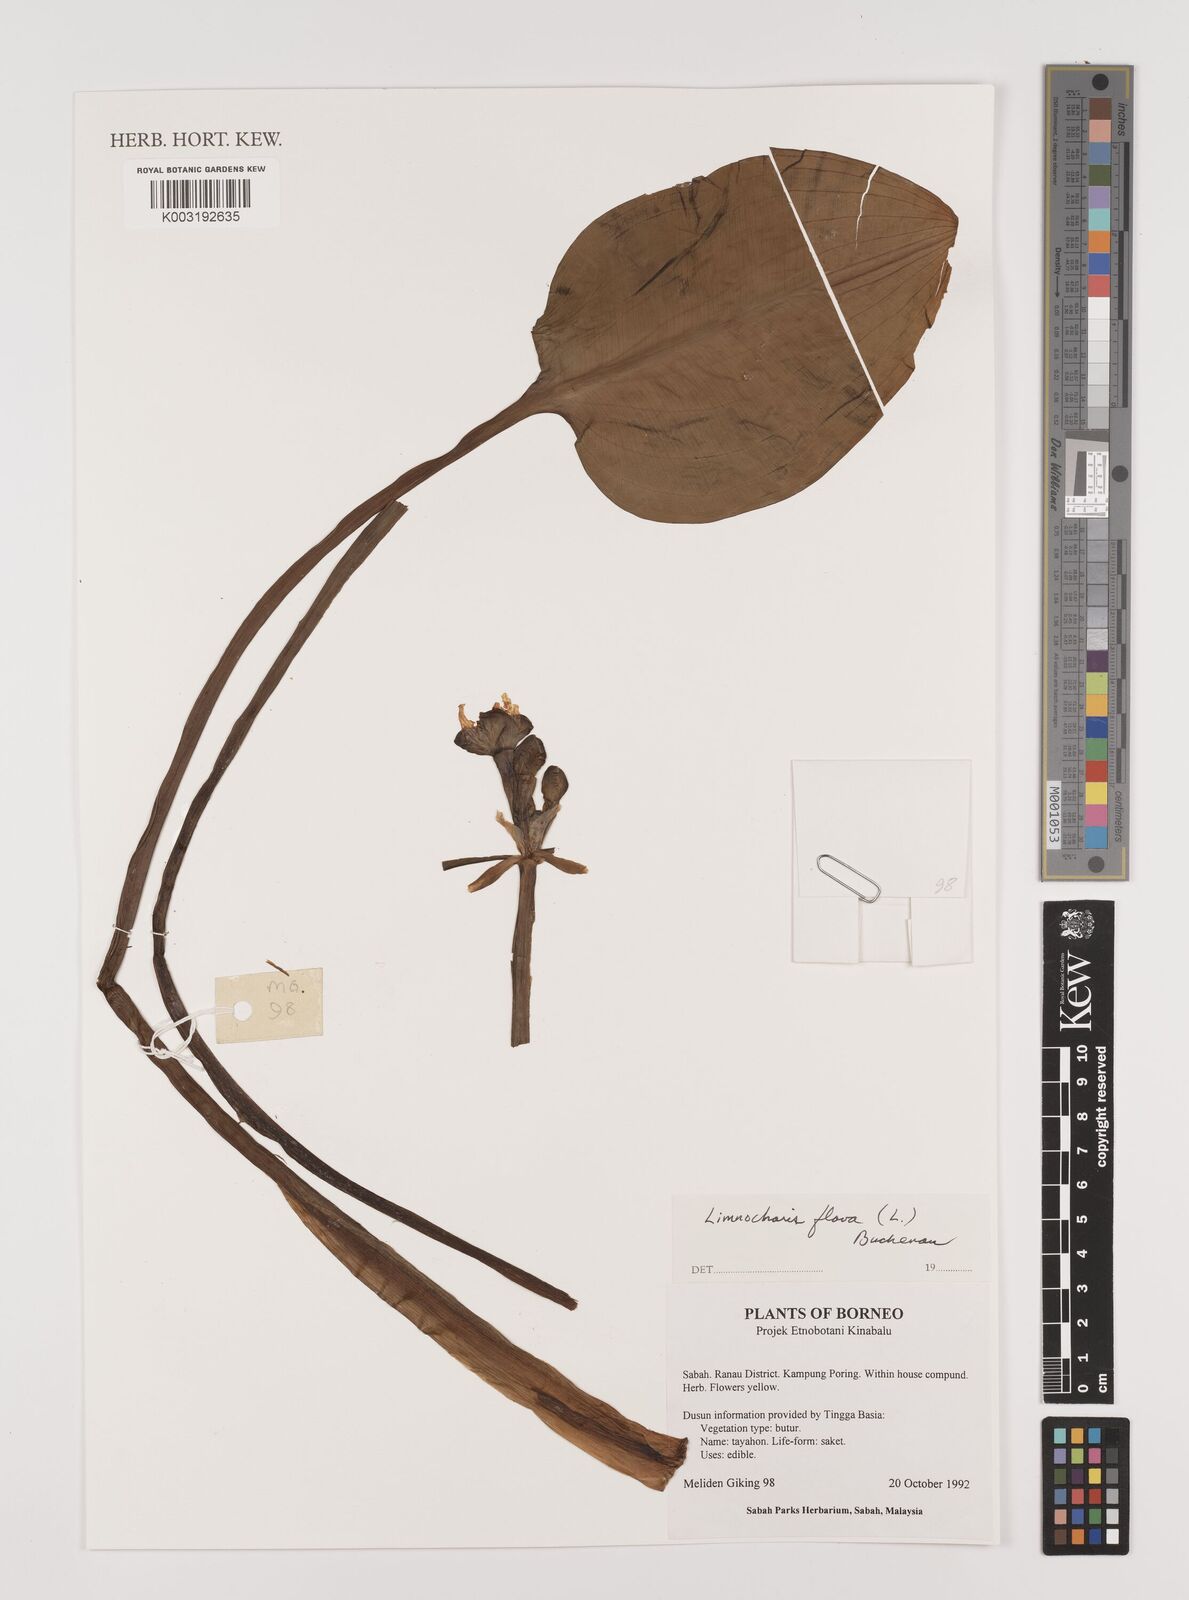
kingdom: Plantae
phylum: Tracheophyta
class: Liliopsida
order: Alismatales
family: Alismataceae
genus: Limnocharis
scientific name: Limnocharis flava
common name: Sawah-flower-rush
